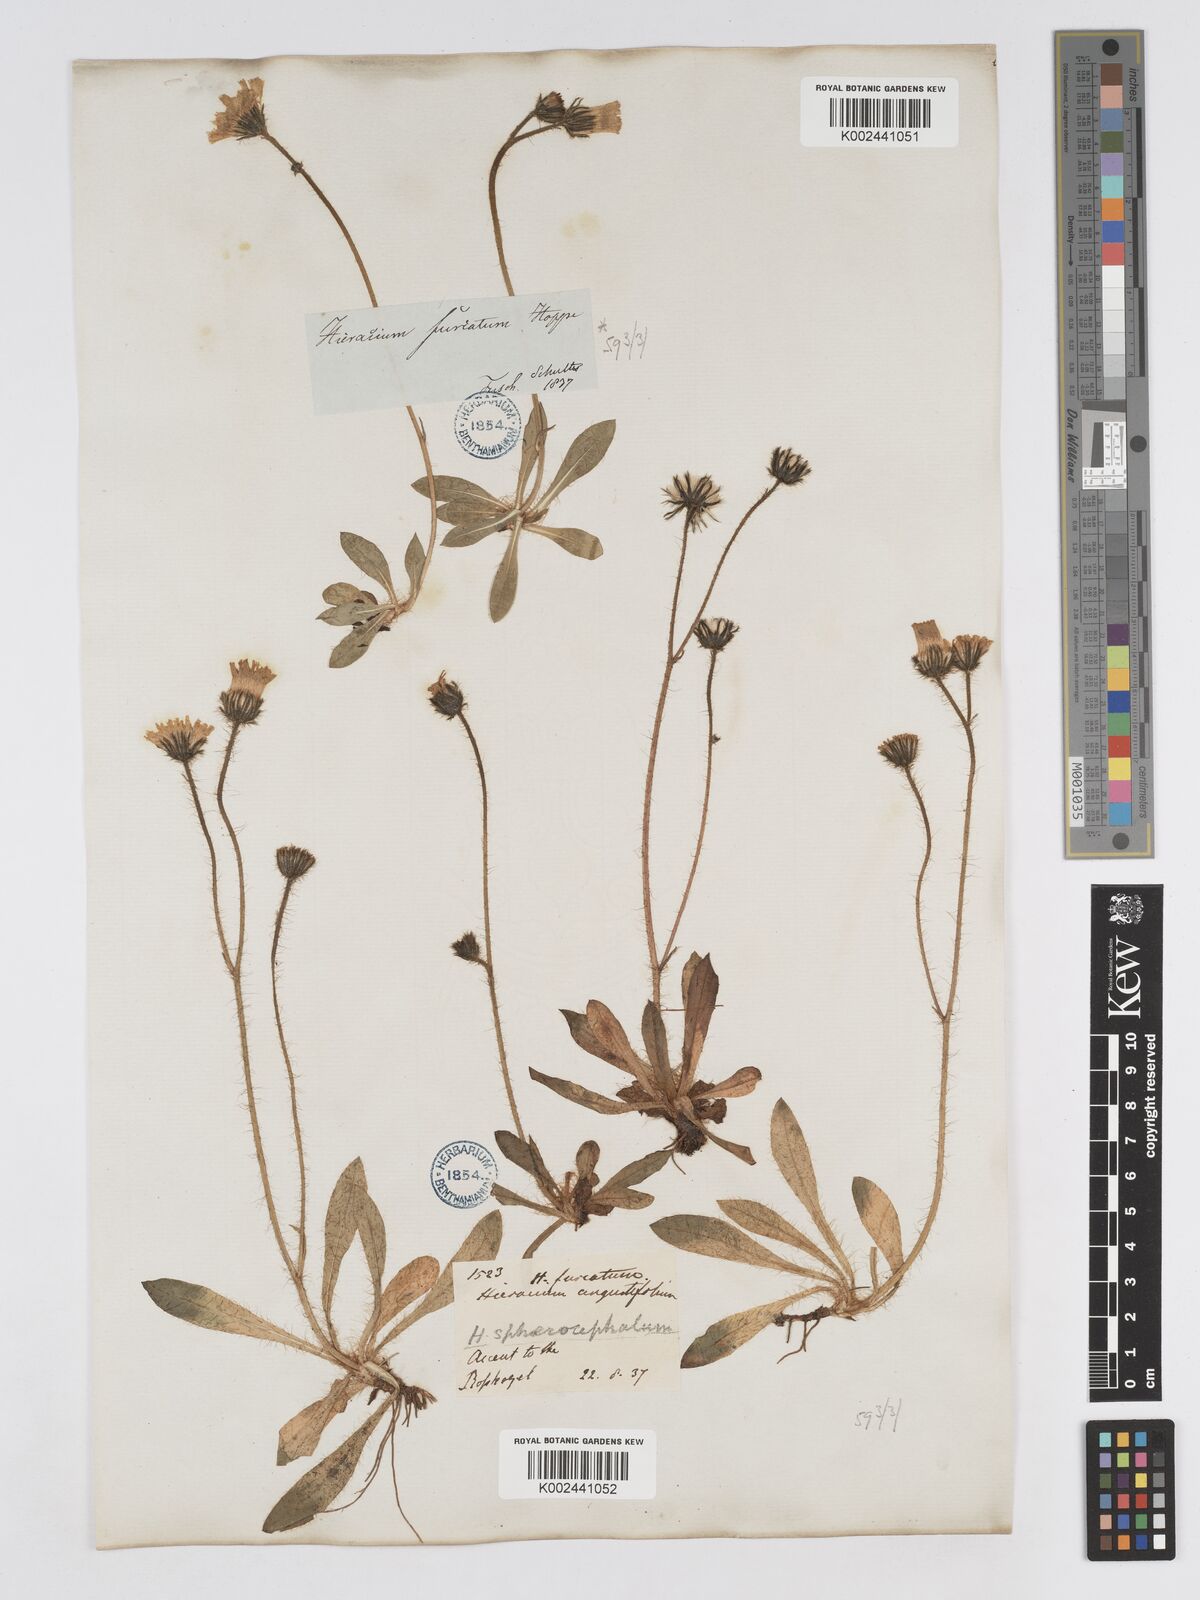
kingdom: Plantae
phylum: Tracheophyta
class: Magnoliopsida
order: Asterales
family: Asteraceae
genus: Pilosella
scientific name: Pilosella sphaerocephala
